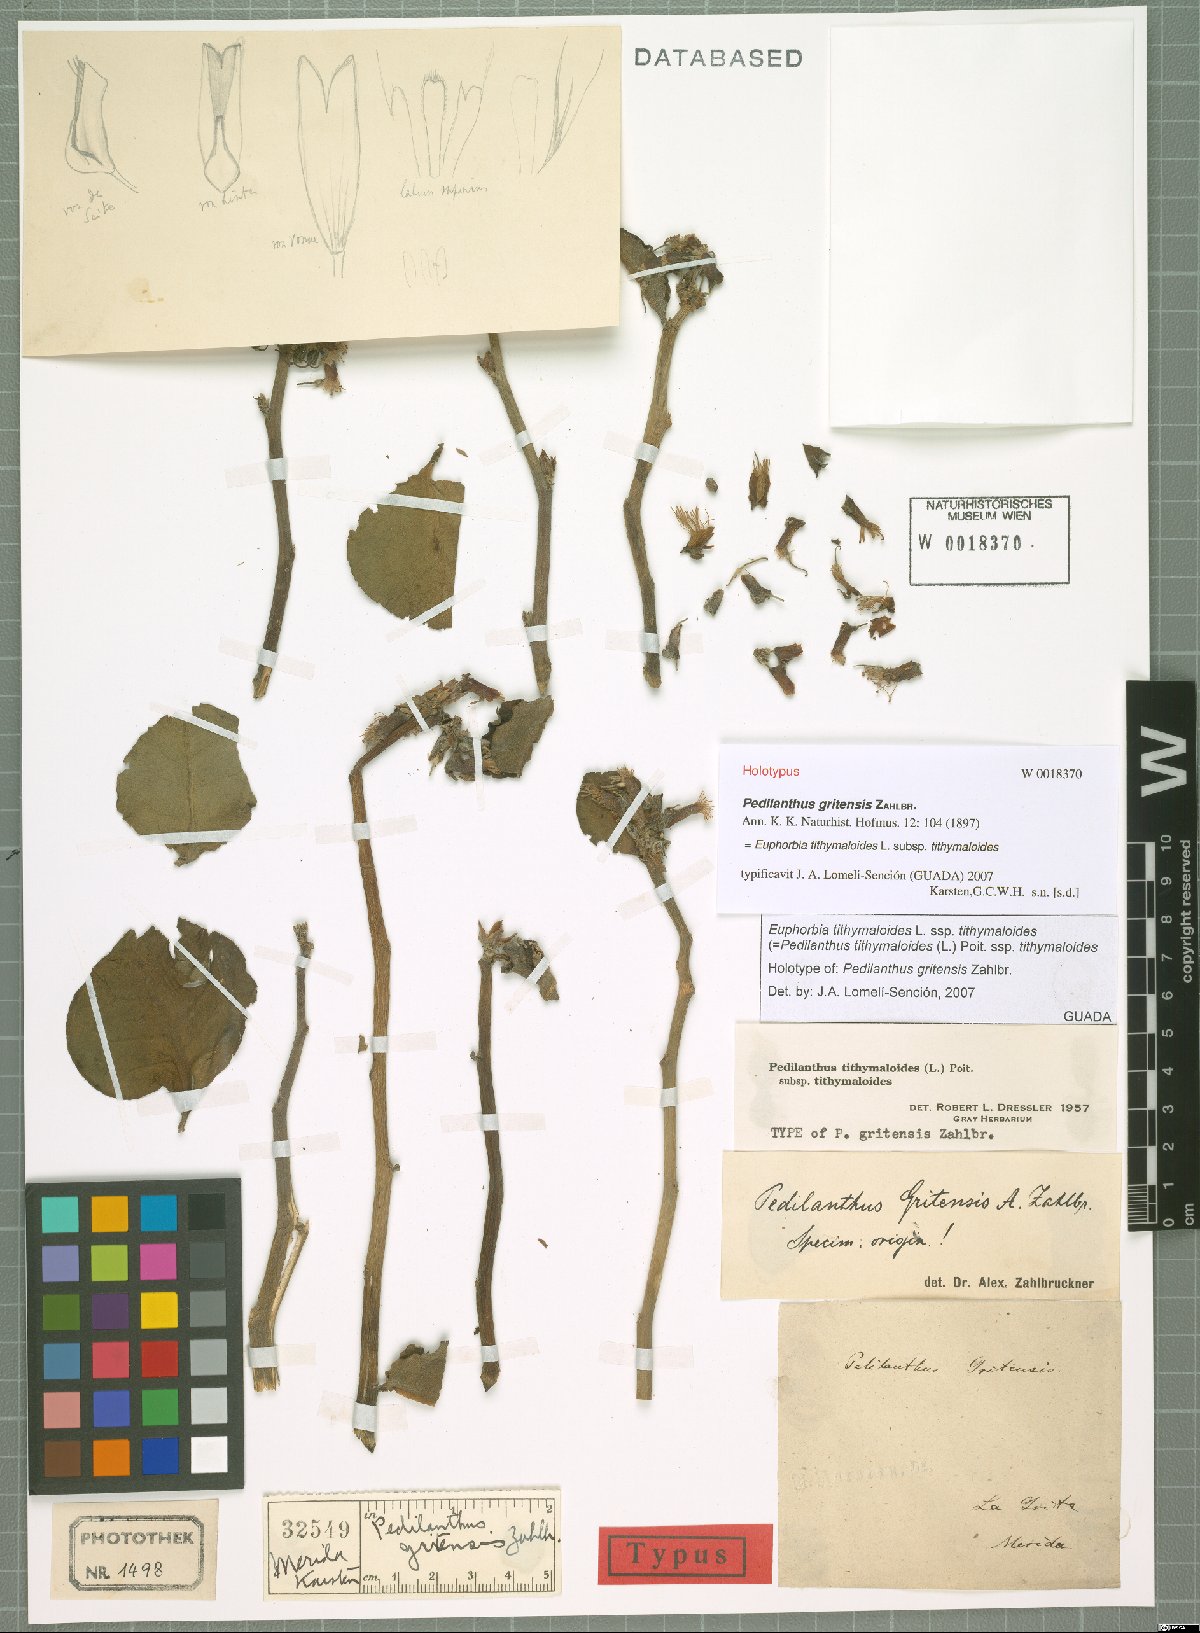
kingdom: Plantae
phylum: Tracheophyta
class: Magnoliopsida
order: Malpighiales
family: Euphorbiaceae
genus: Euphorbia
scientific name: Euphorbia tithymaloides
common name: Slipperplant
